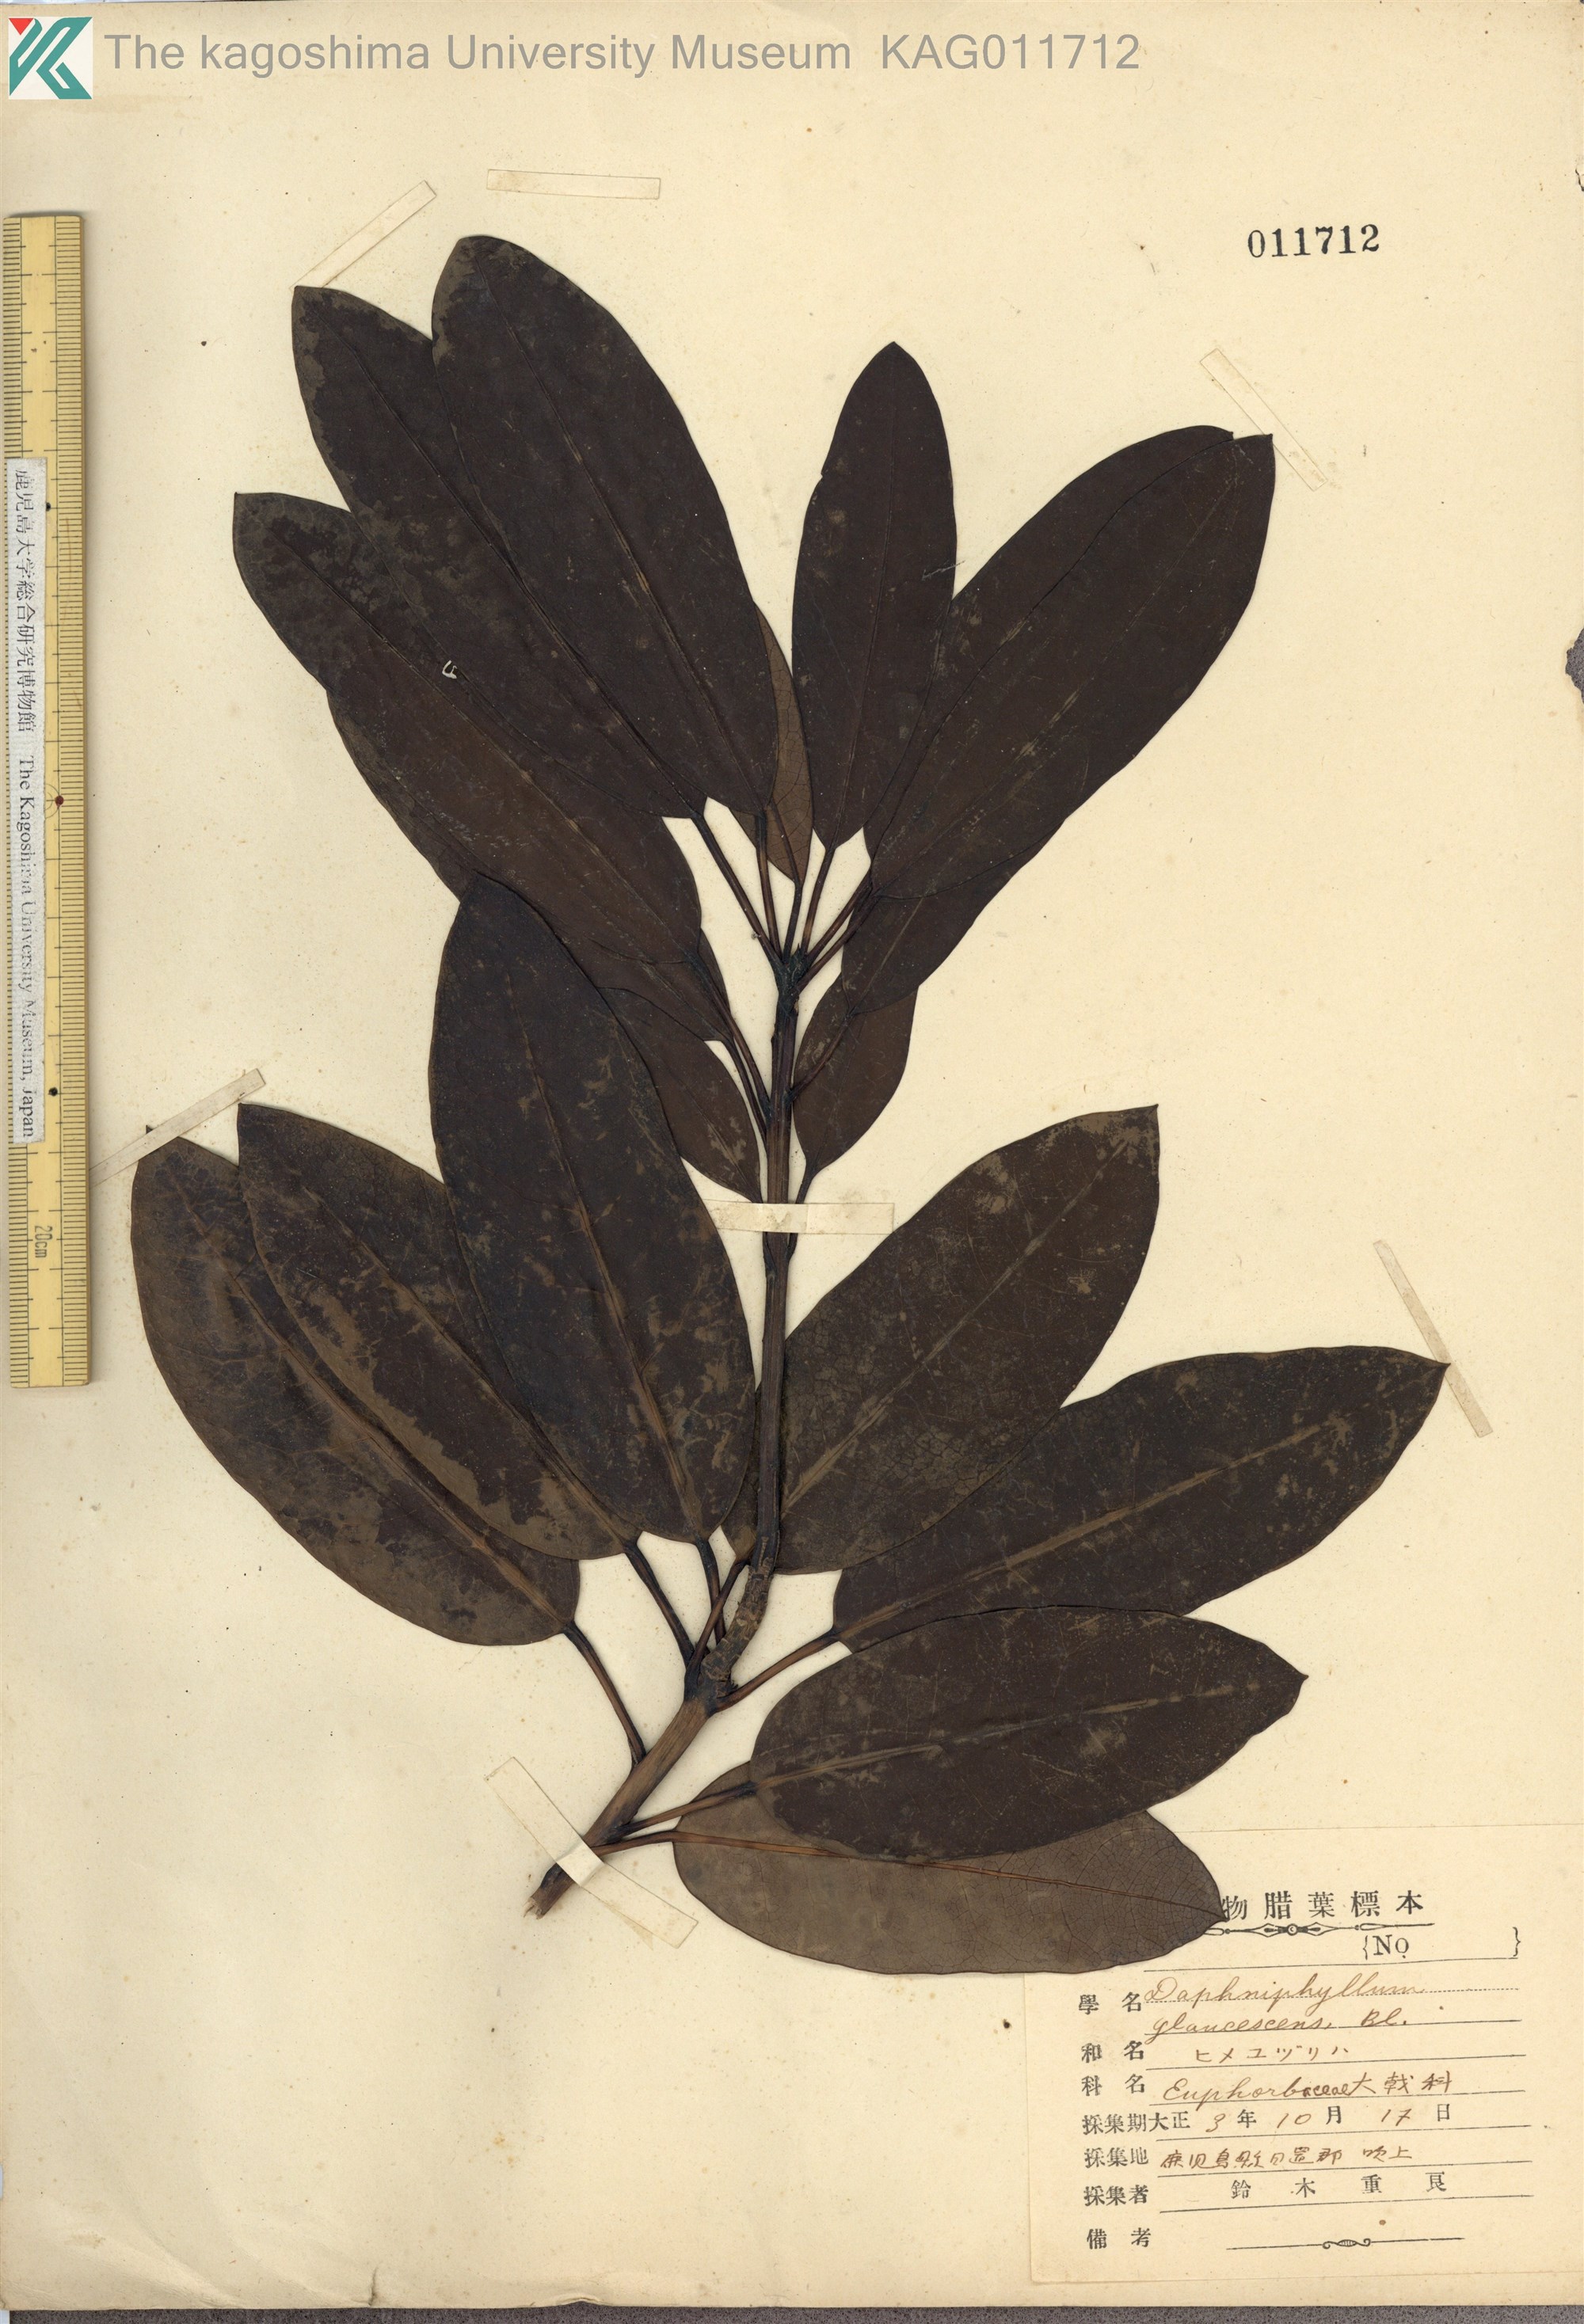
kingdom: Plantae
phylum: Tracheophyta
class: Magnoliopsida
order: Saxifragales
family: Daphniphyllaceae
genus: Daphniphyllum
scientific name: Daphniphyllum teijsmannii
